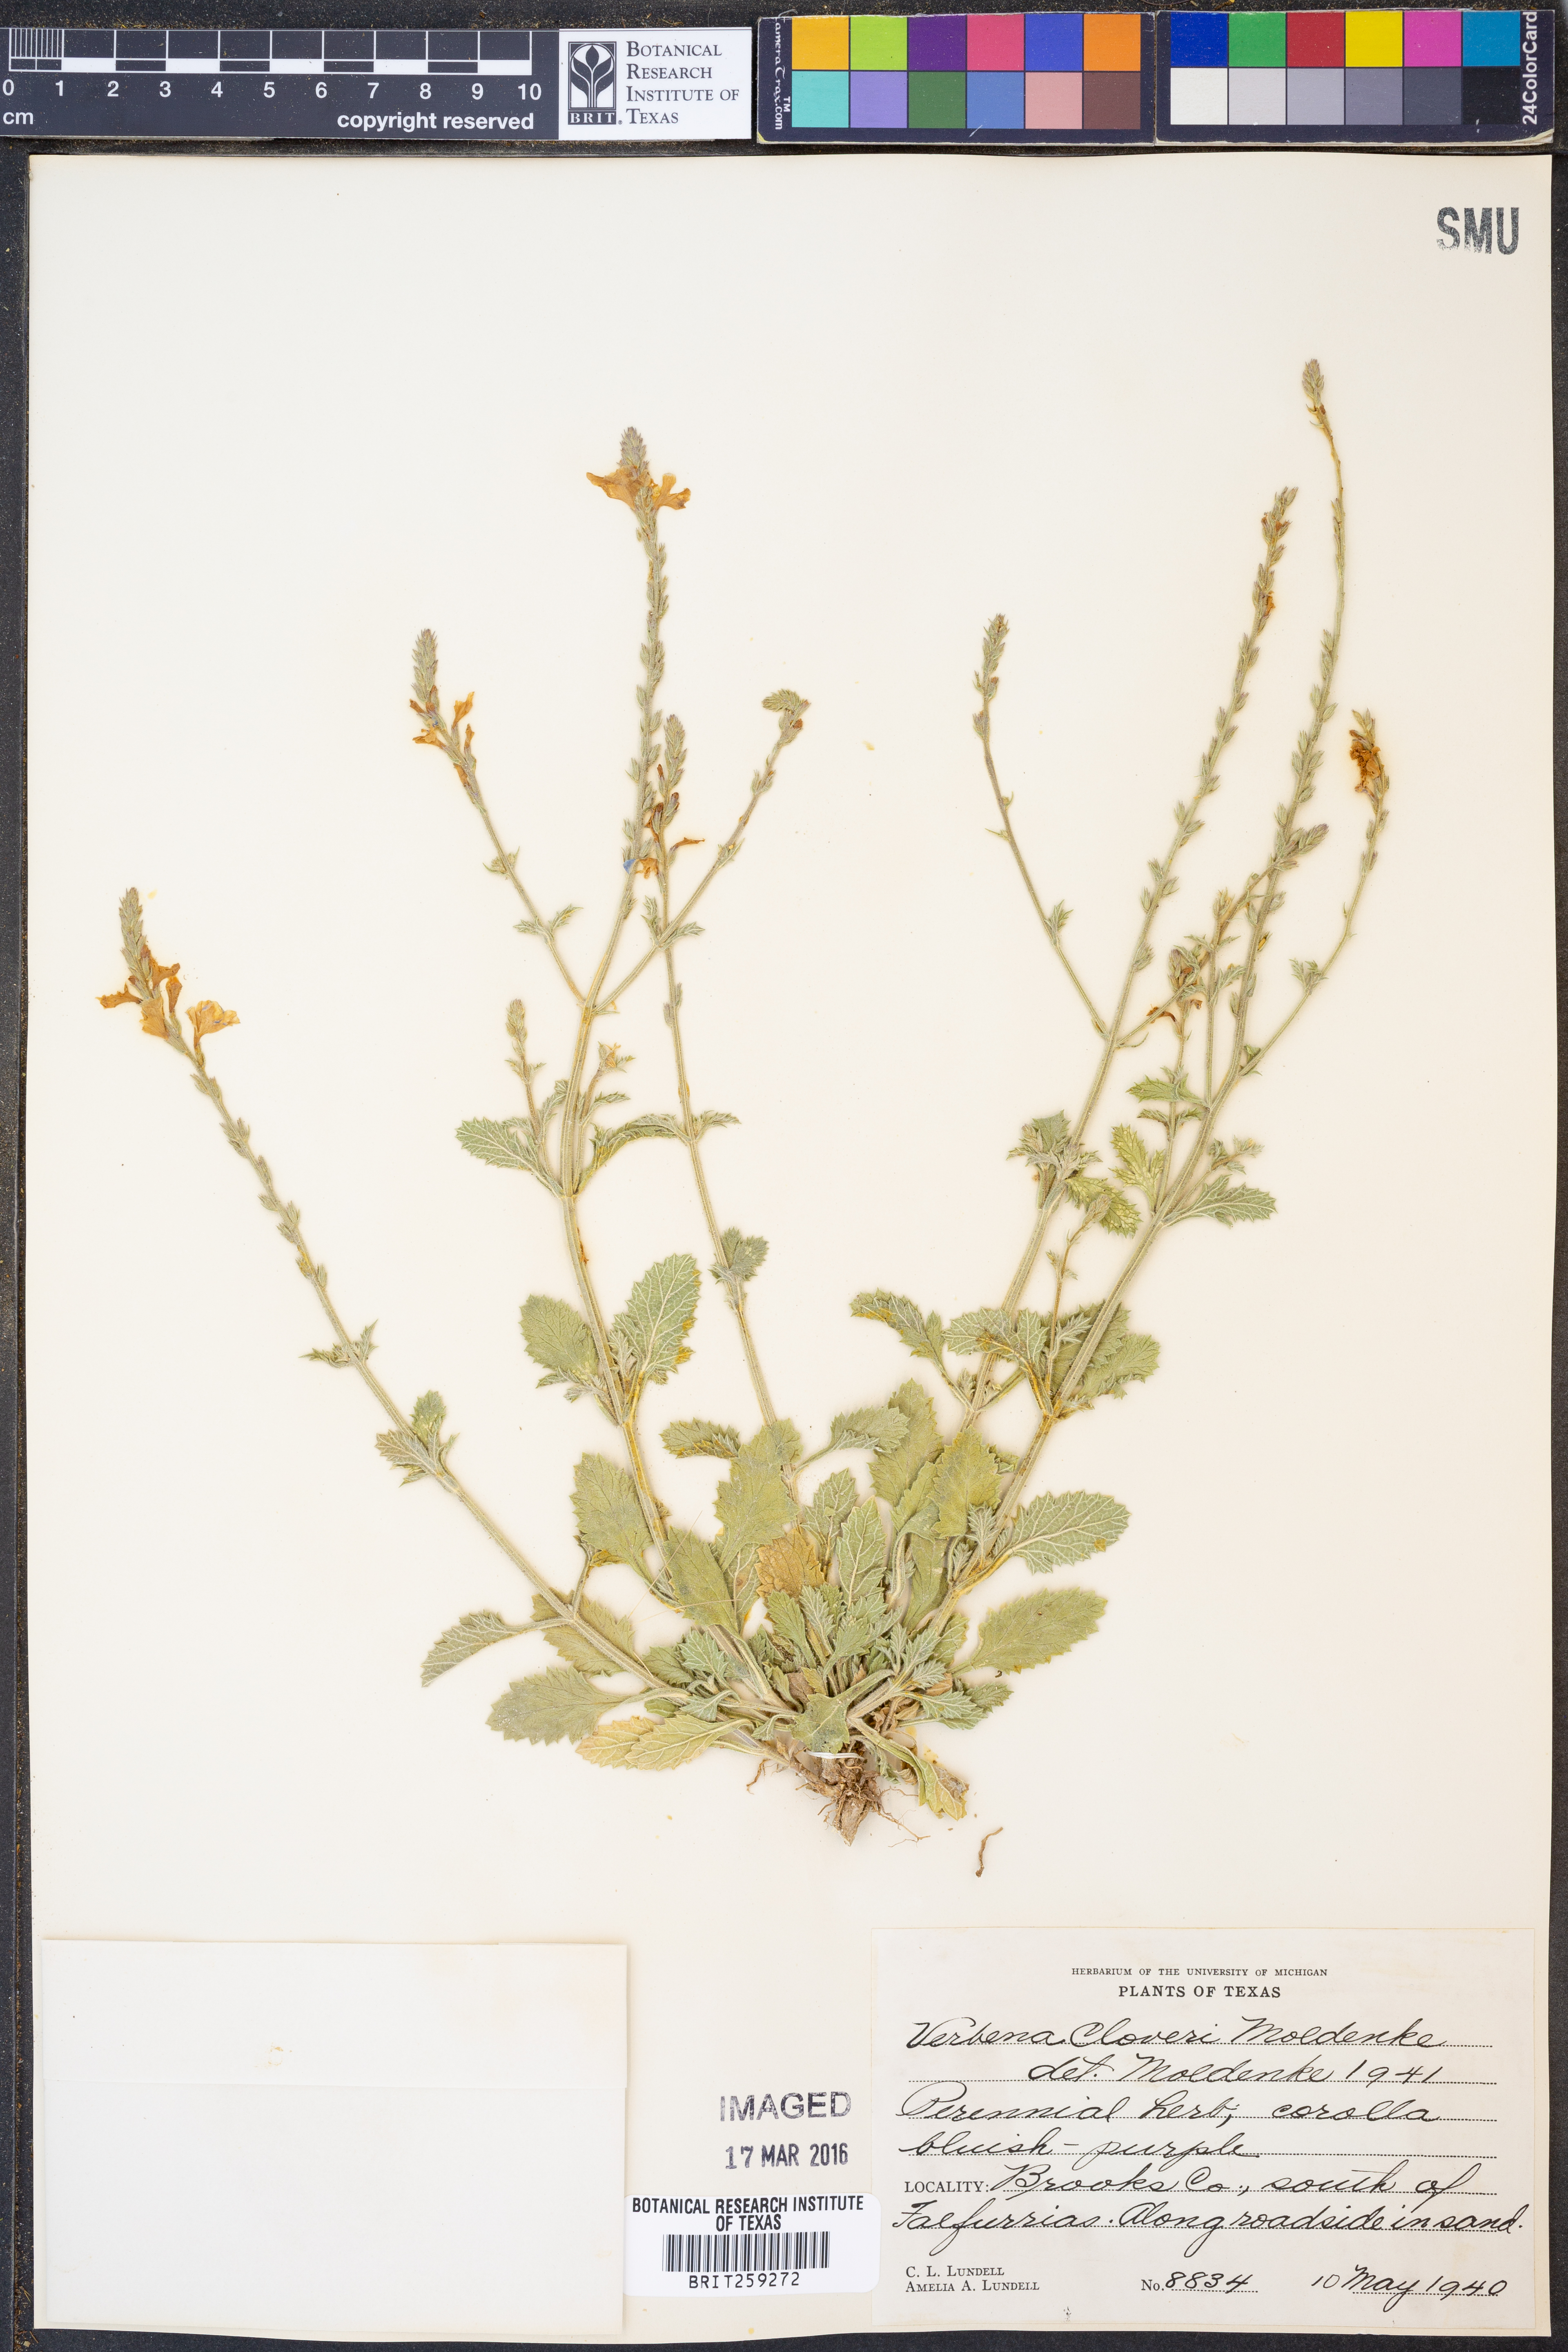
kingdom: Plantae
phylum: Tracheophyta
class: Magnoliopsida
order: Lamiales
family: Verbenaceae
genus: Verbena
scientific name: Verbena cloveri
